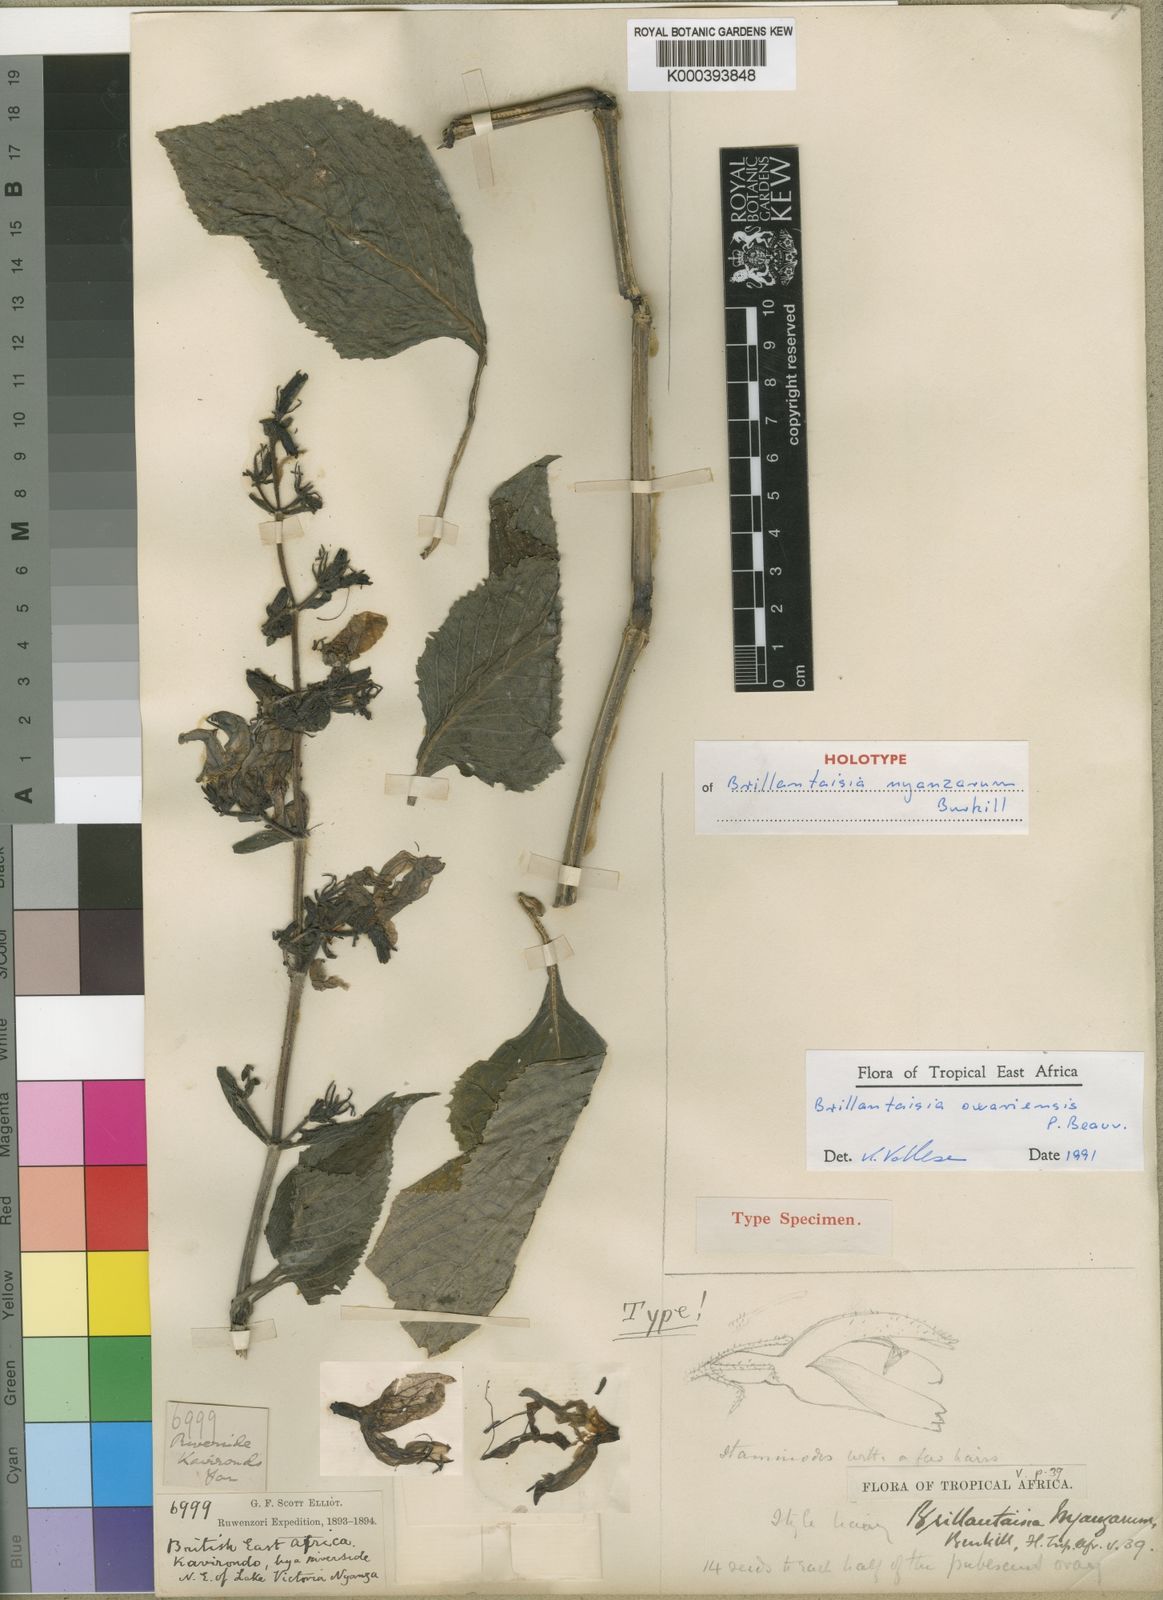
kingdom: Plantae
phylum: Tracheophyta
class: Magnoliopsida
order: Lamiales
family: Acanthaceae
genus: Brillantaisia
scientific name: Brillantaisia owariensis
